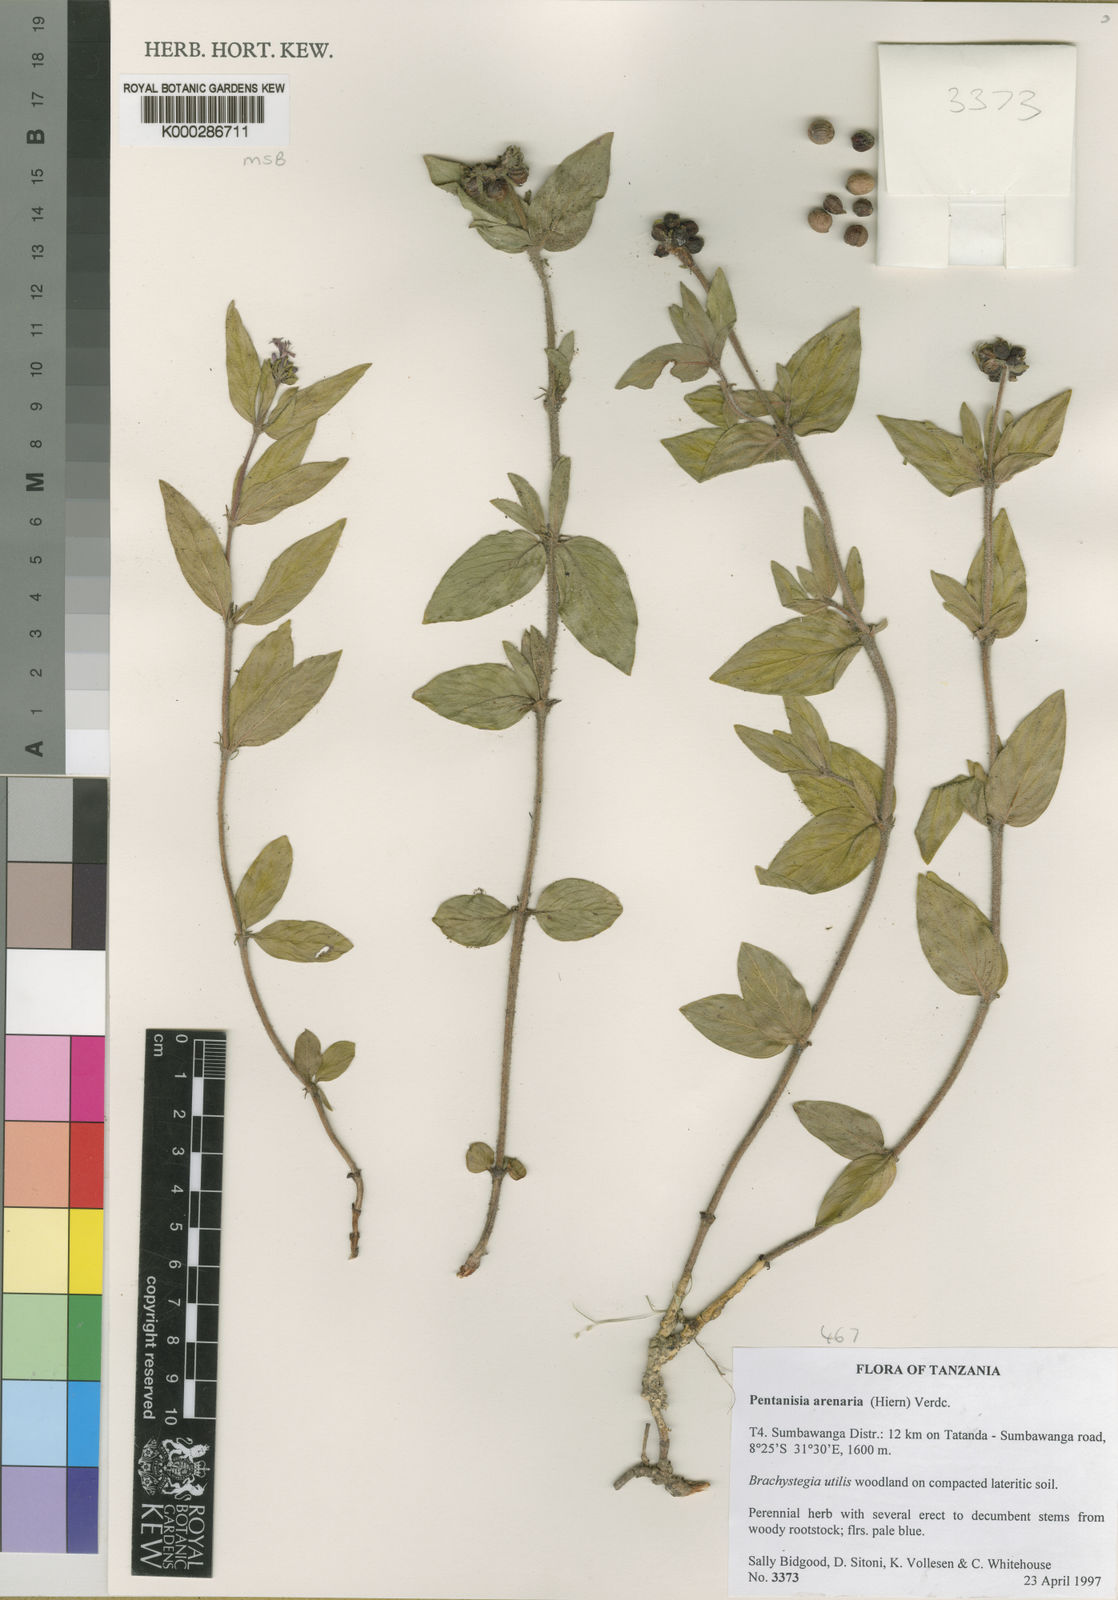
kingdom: Plantae
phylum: Tracheophyta
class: Magnoliopsida
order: Gentianales
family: Rubiaceae
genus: Pentanisia
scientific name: Pentanisia arenaria
